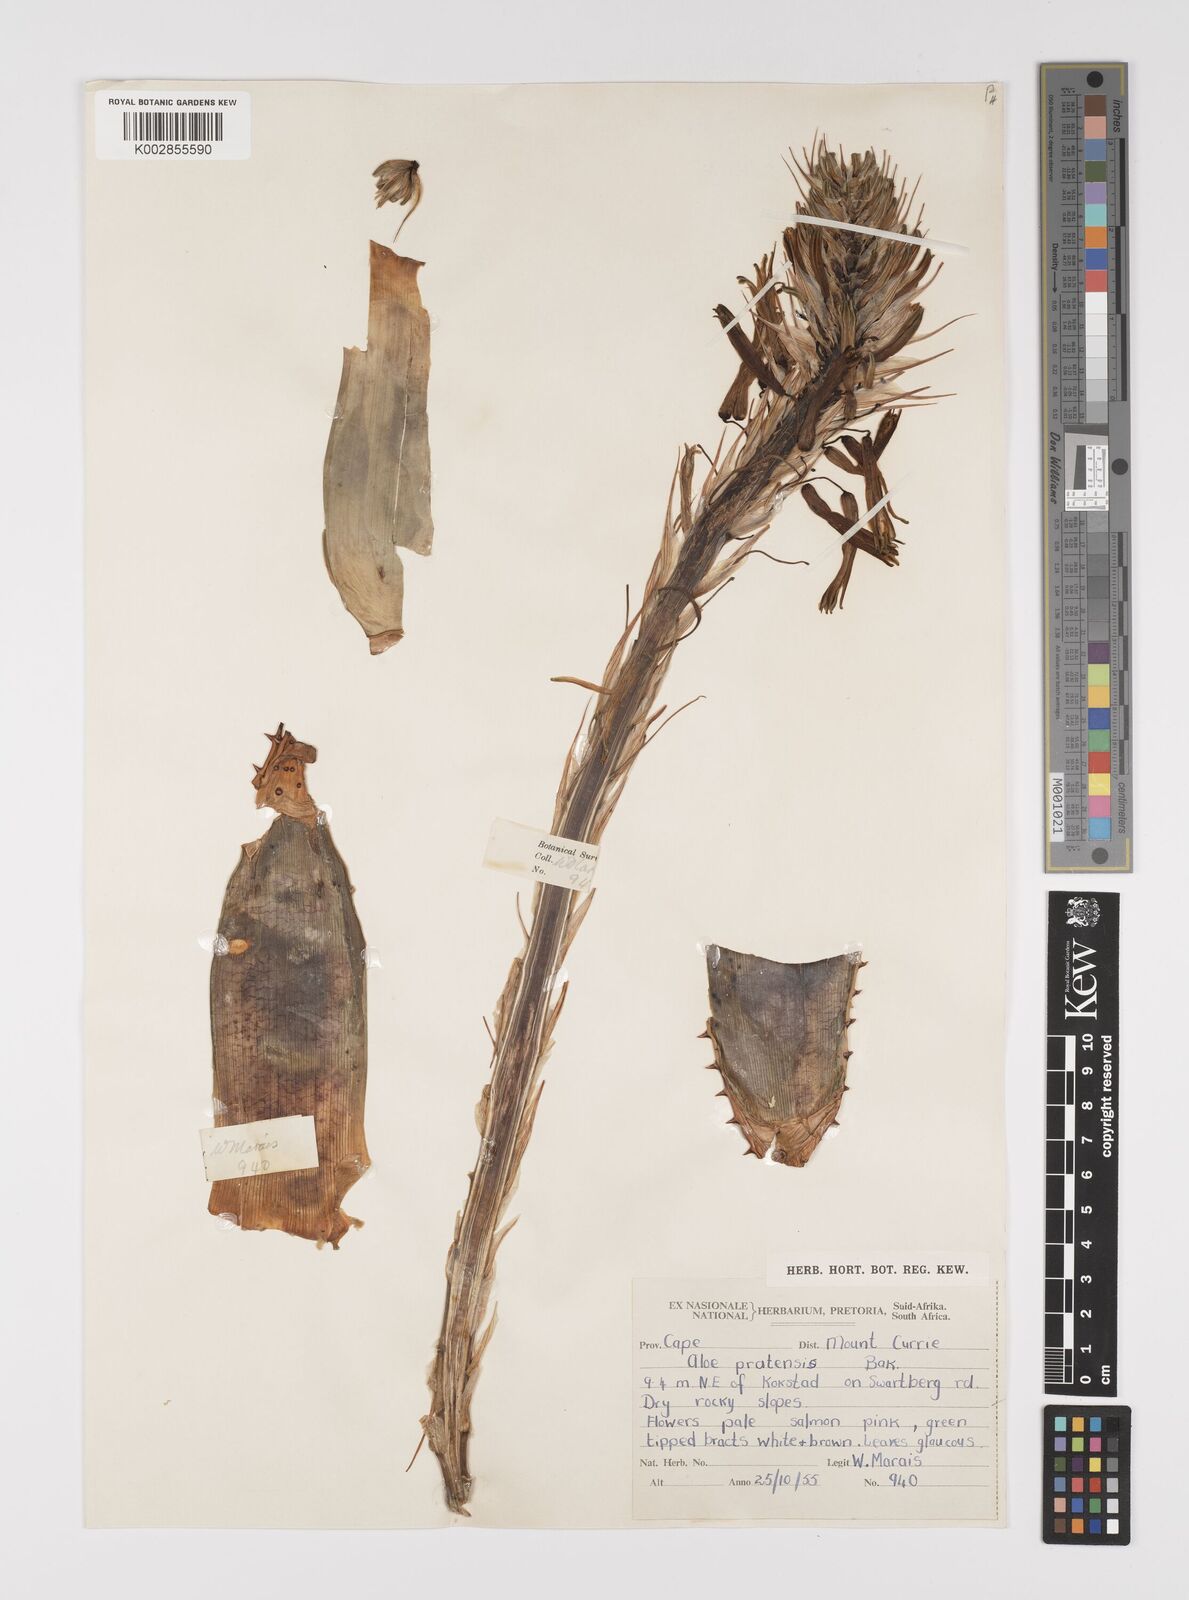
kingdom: Plantae
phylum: Tracheophyta
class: Liliopsida
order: Asparagales
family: Asphodelaceae
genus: Aloe
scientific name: Aloe pratensis
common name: Meadow aloe
